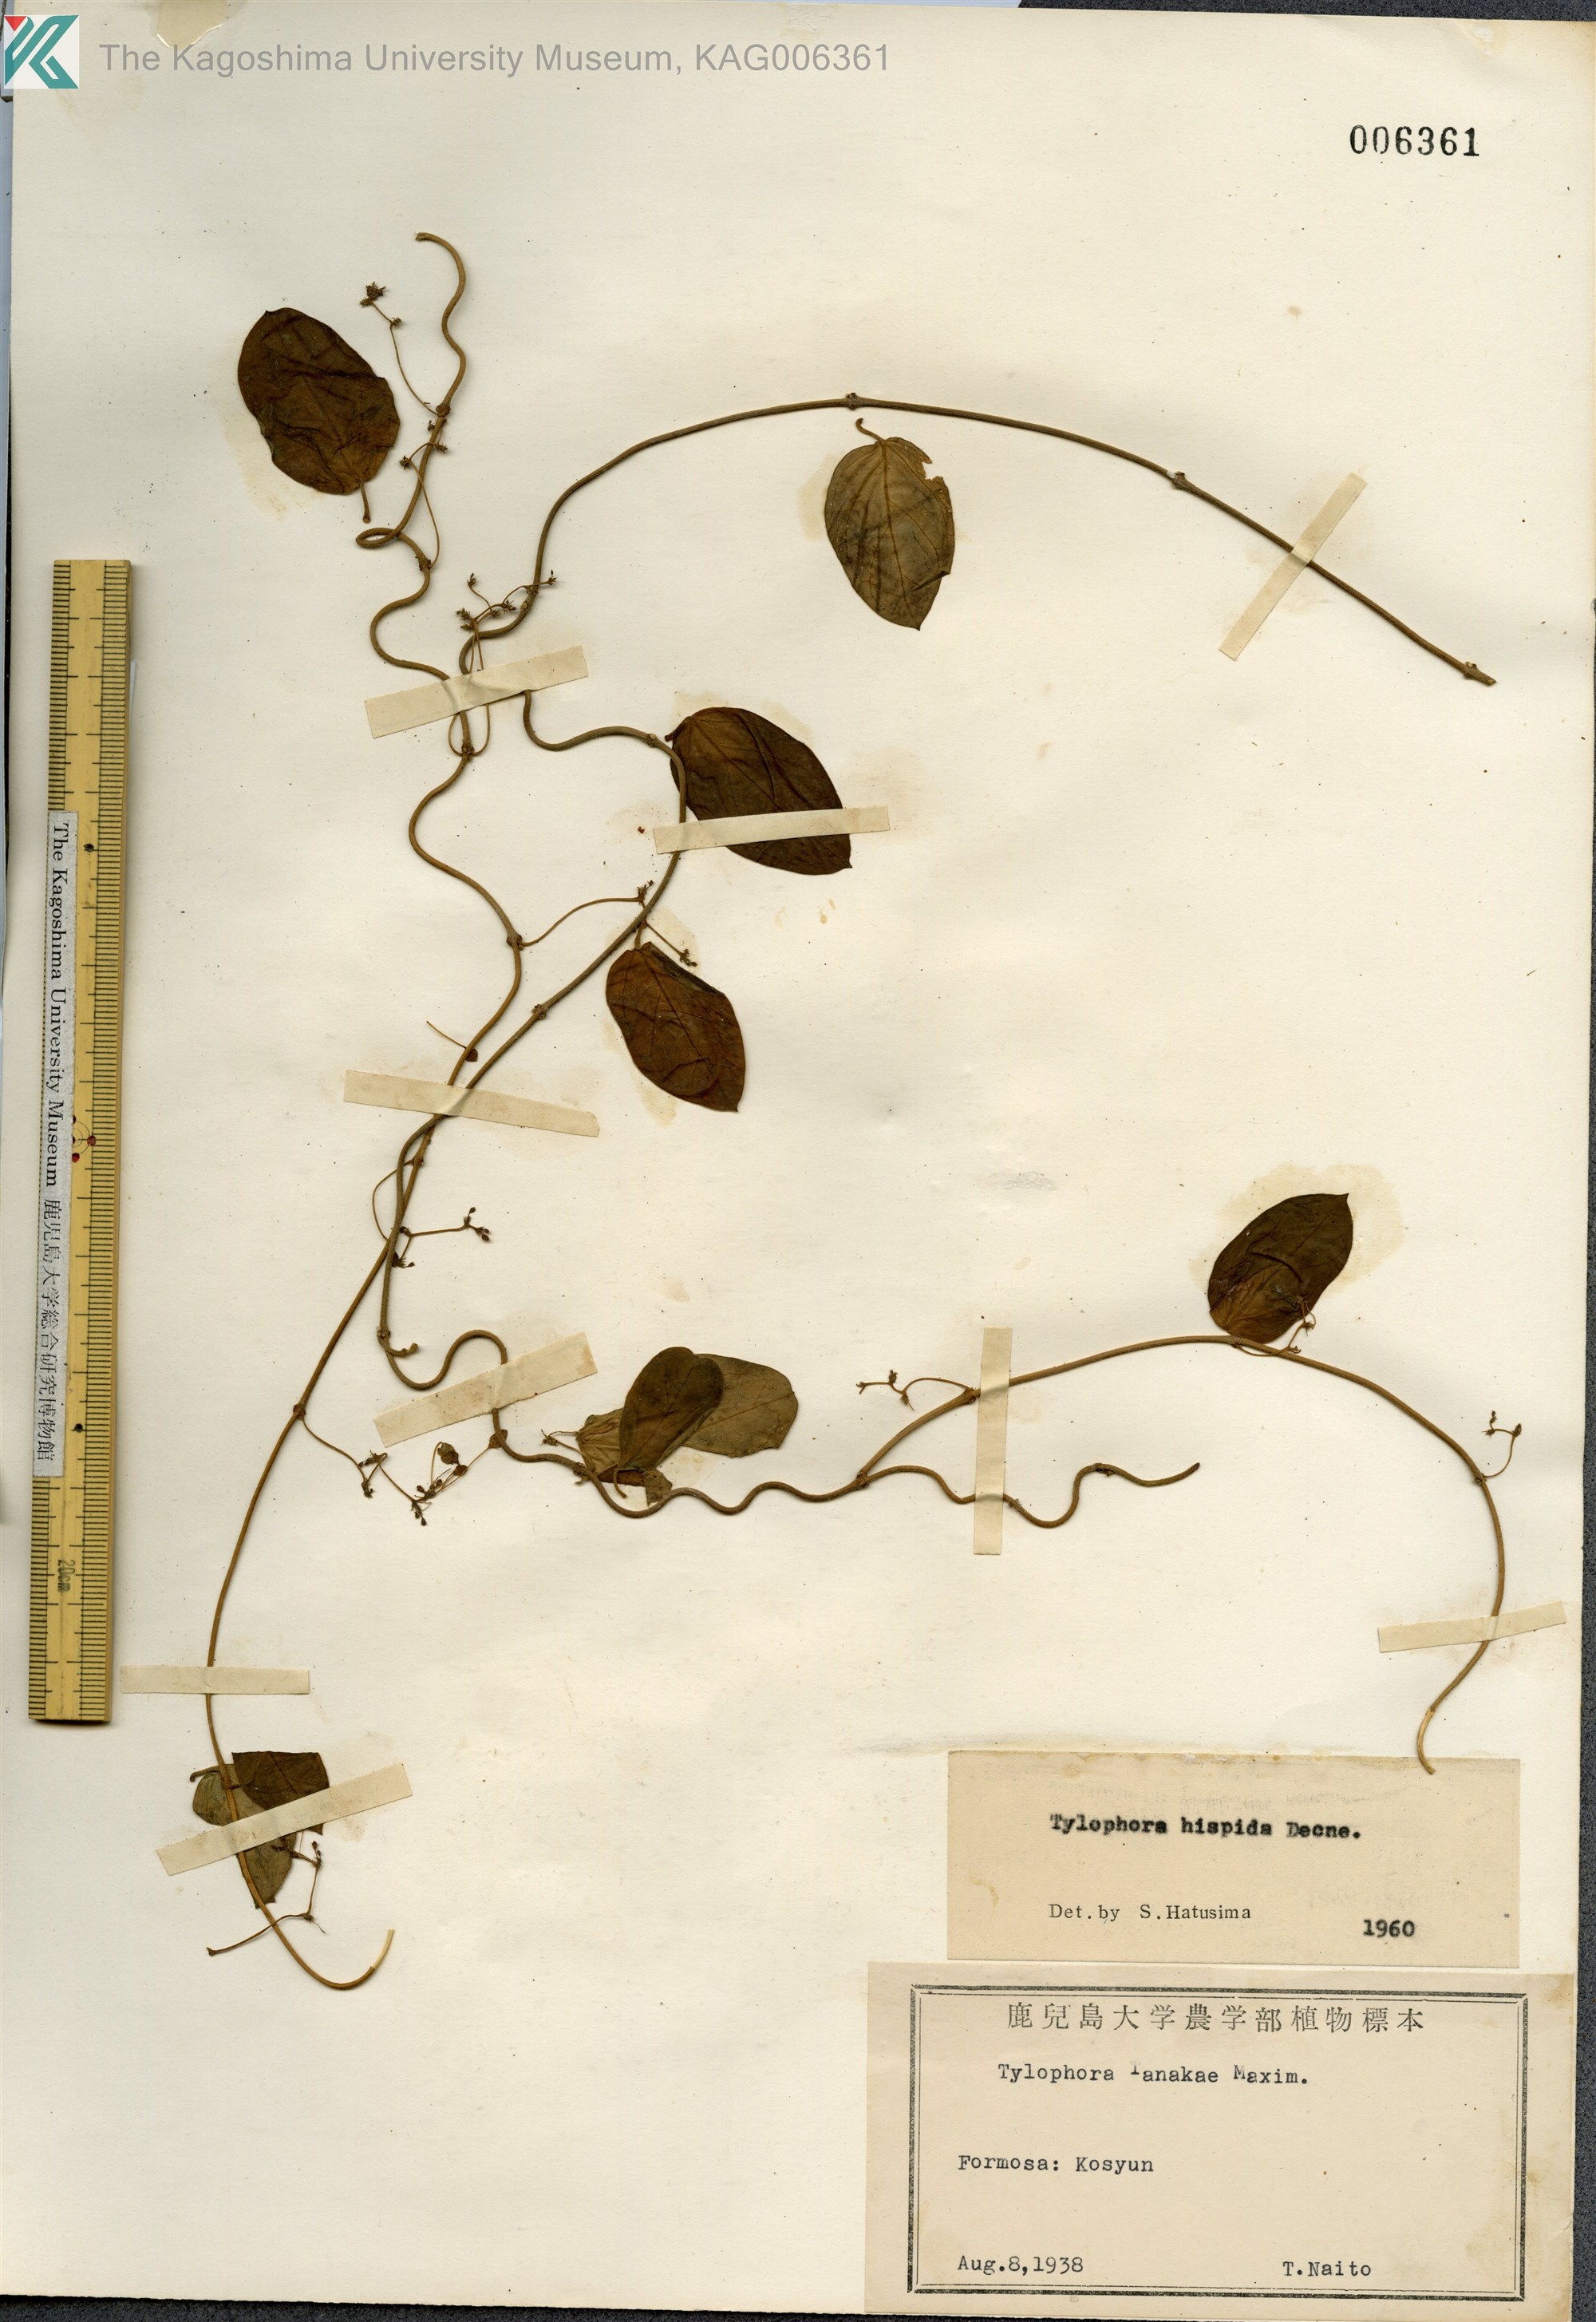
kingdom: Plantae
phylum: Tracheophyta
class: Magnoliopsida
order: Gentianales
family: Apocynaceae
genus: Vincetoxicum
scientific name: Vincetoxicum hirsutum
